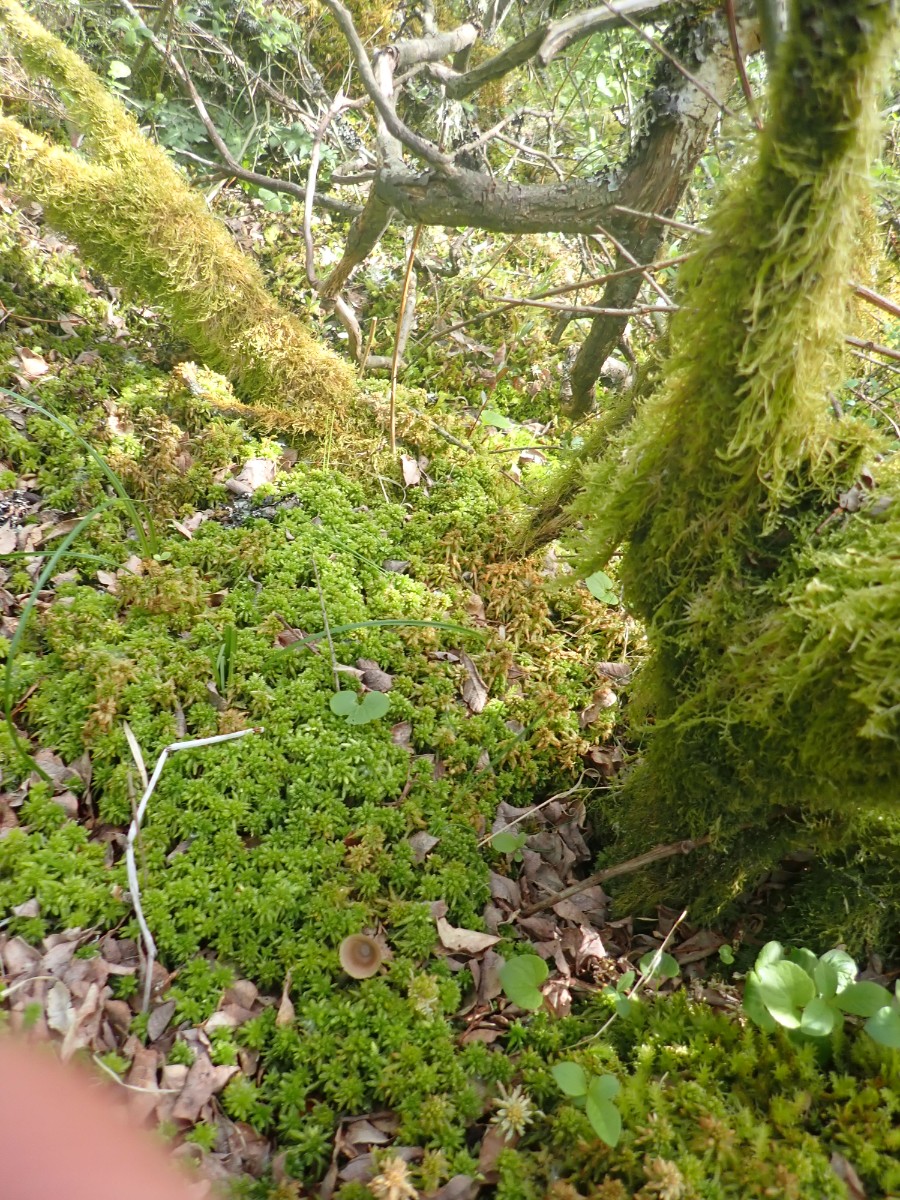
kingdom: Fungi
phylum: Basidiomycota
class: Agaricomycetes
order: Agaricales
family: Entolomataceae
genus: Entoloma
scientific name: Entoloma conferendum
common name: stjernesporet rødblad
